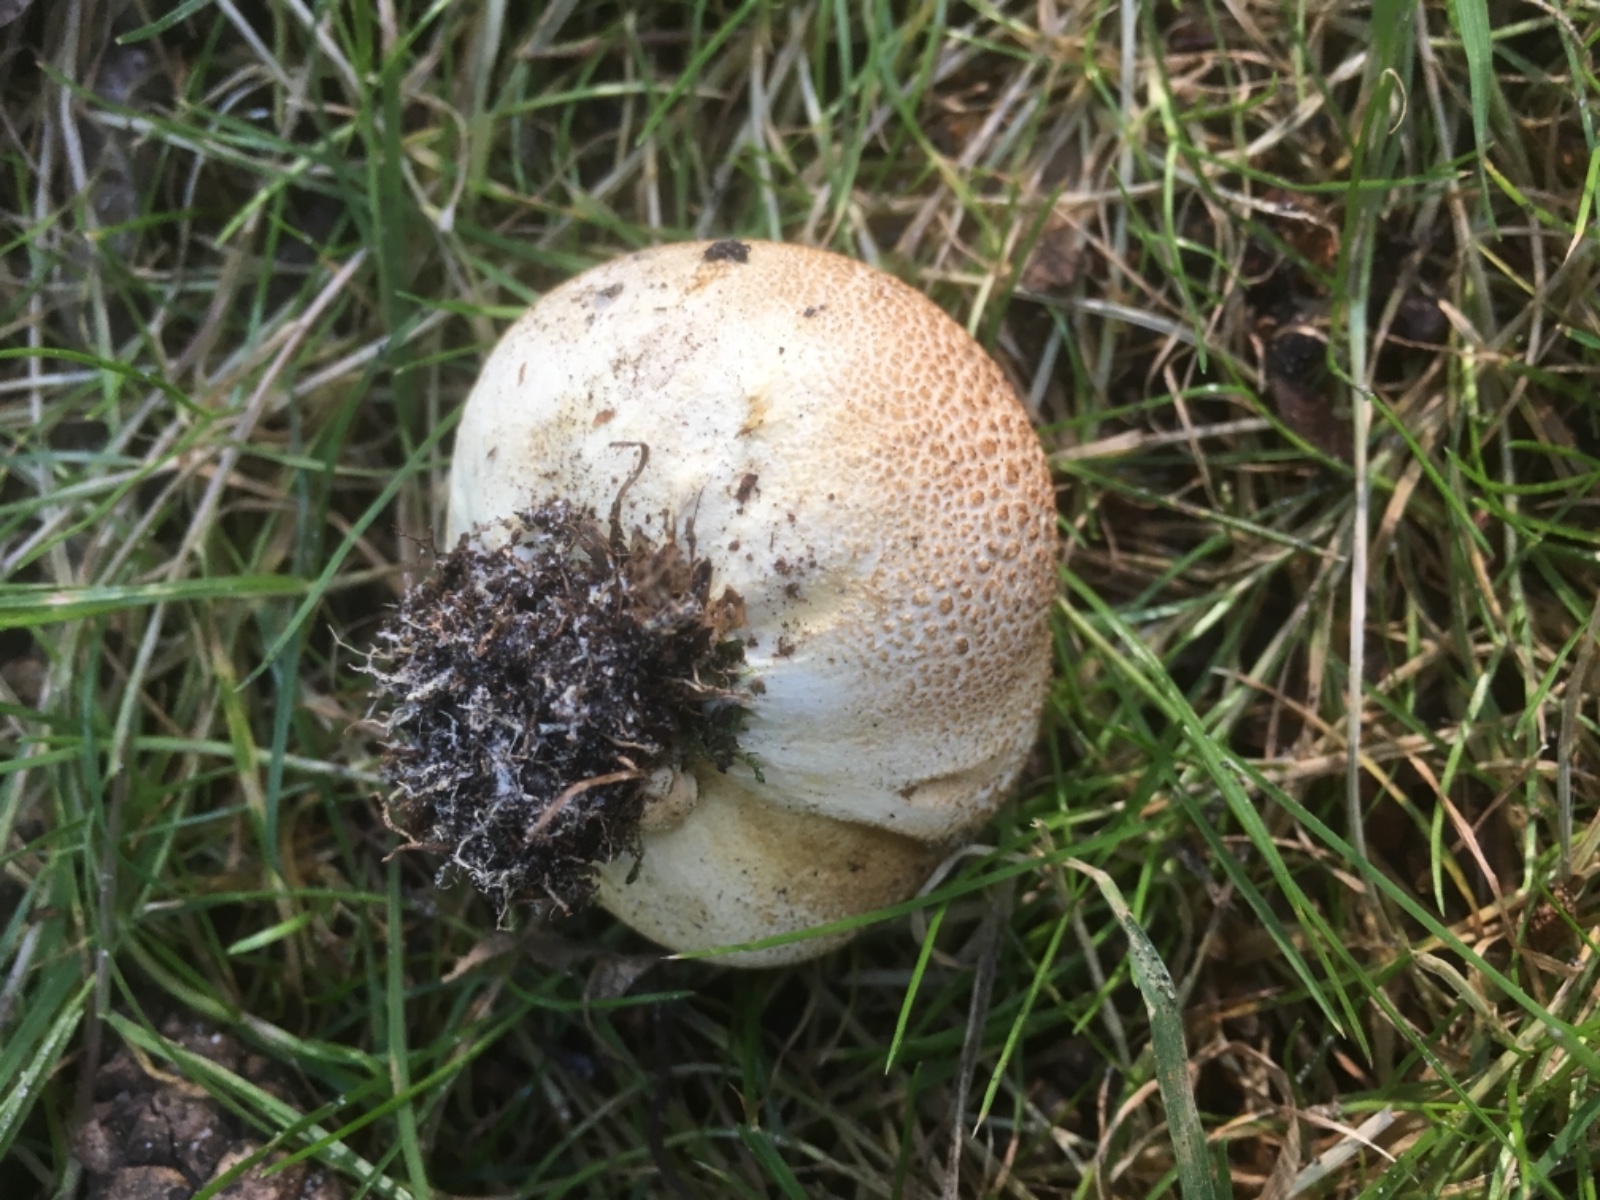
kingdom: Fungi
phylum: Basidiomycota
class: Agaricomycetes
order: Boletales
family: Sclerodermataceae
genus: Scleroderma
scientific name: Scleroderma citrinum
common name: almindelig bruskbold
